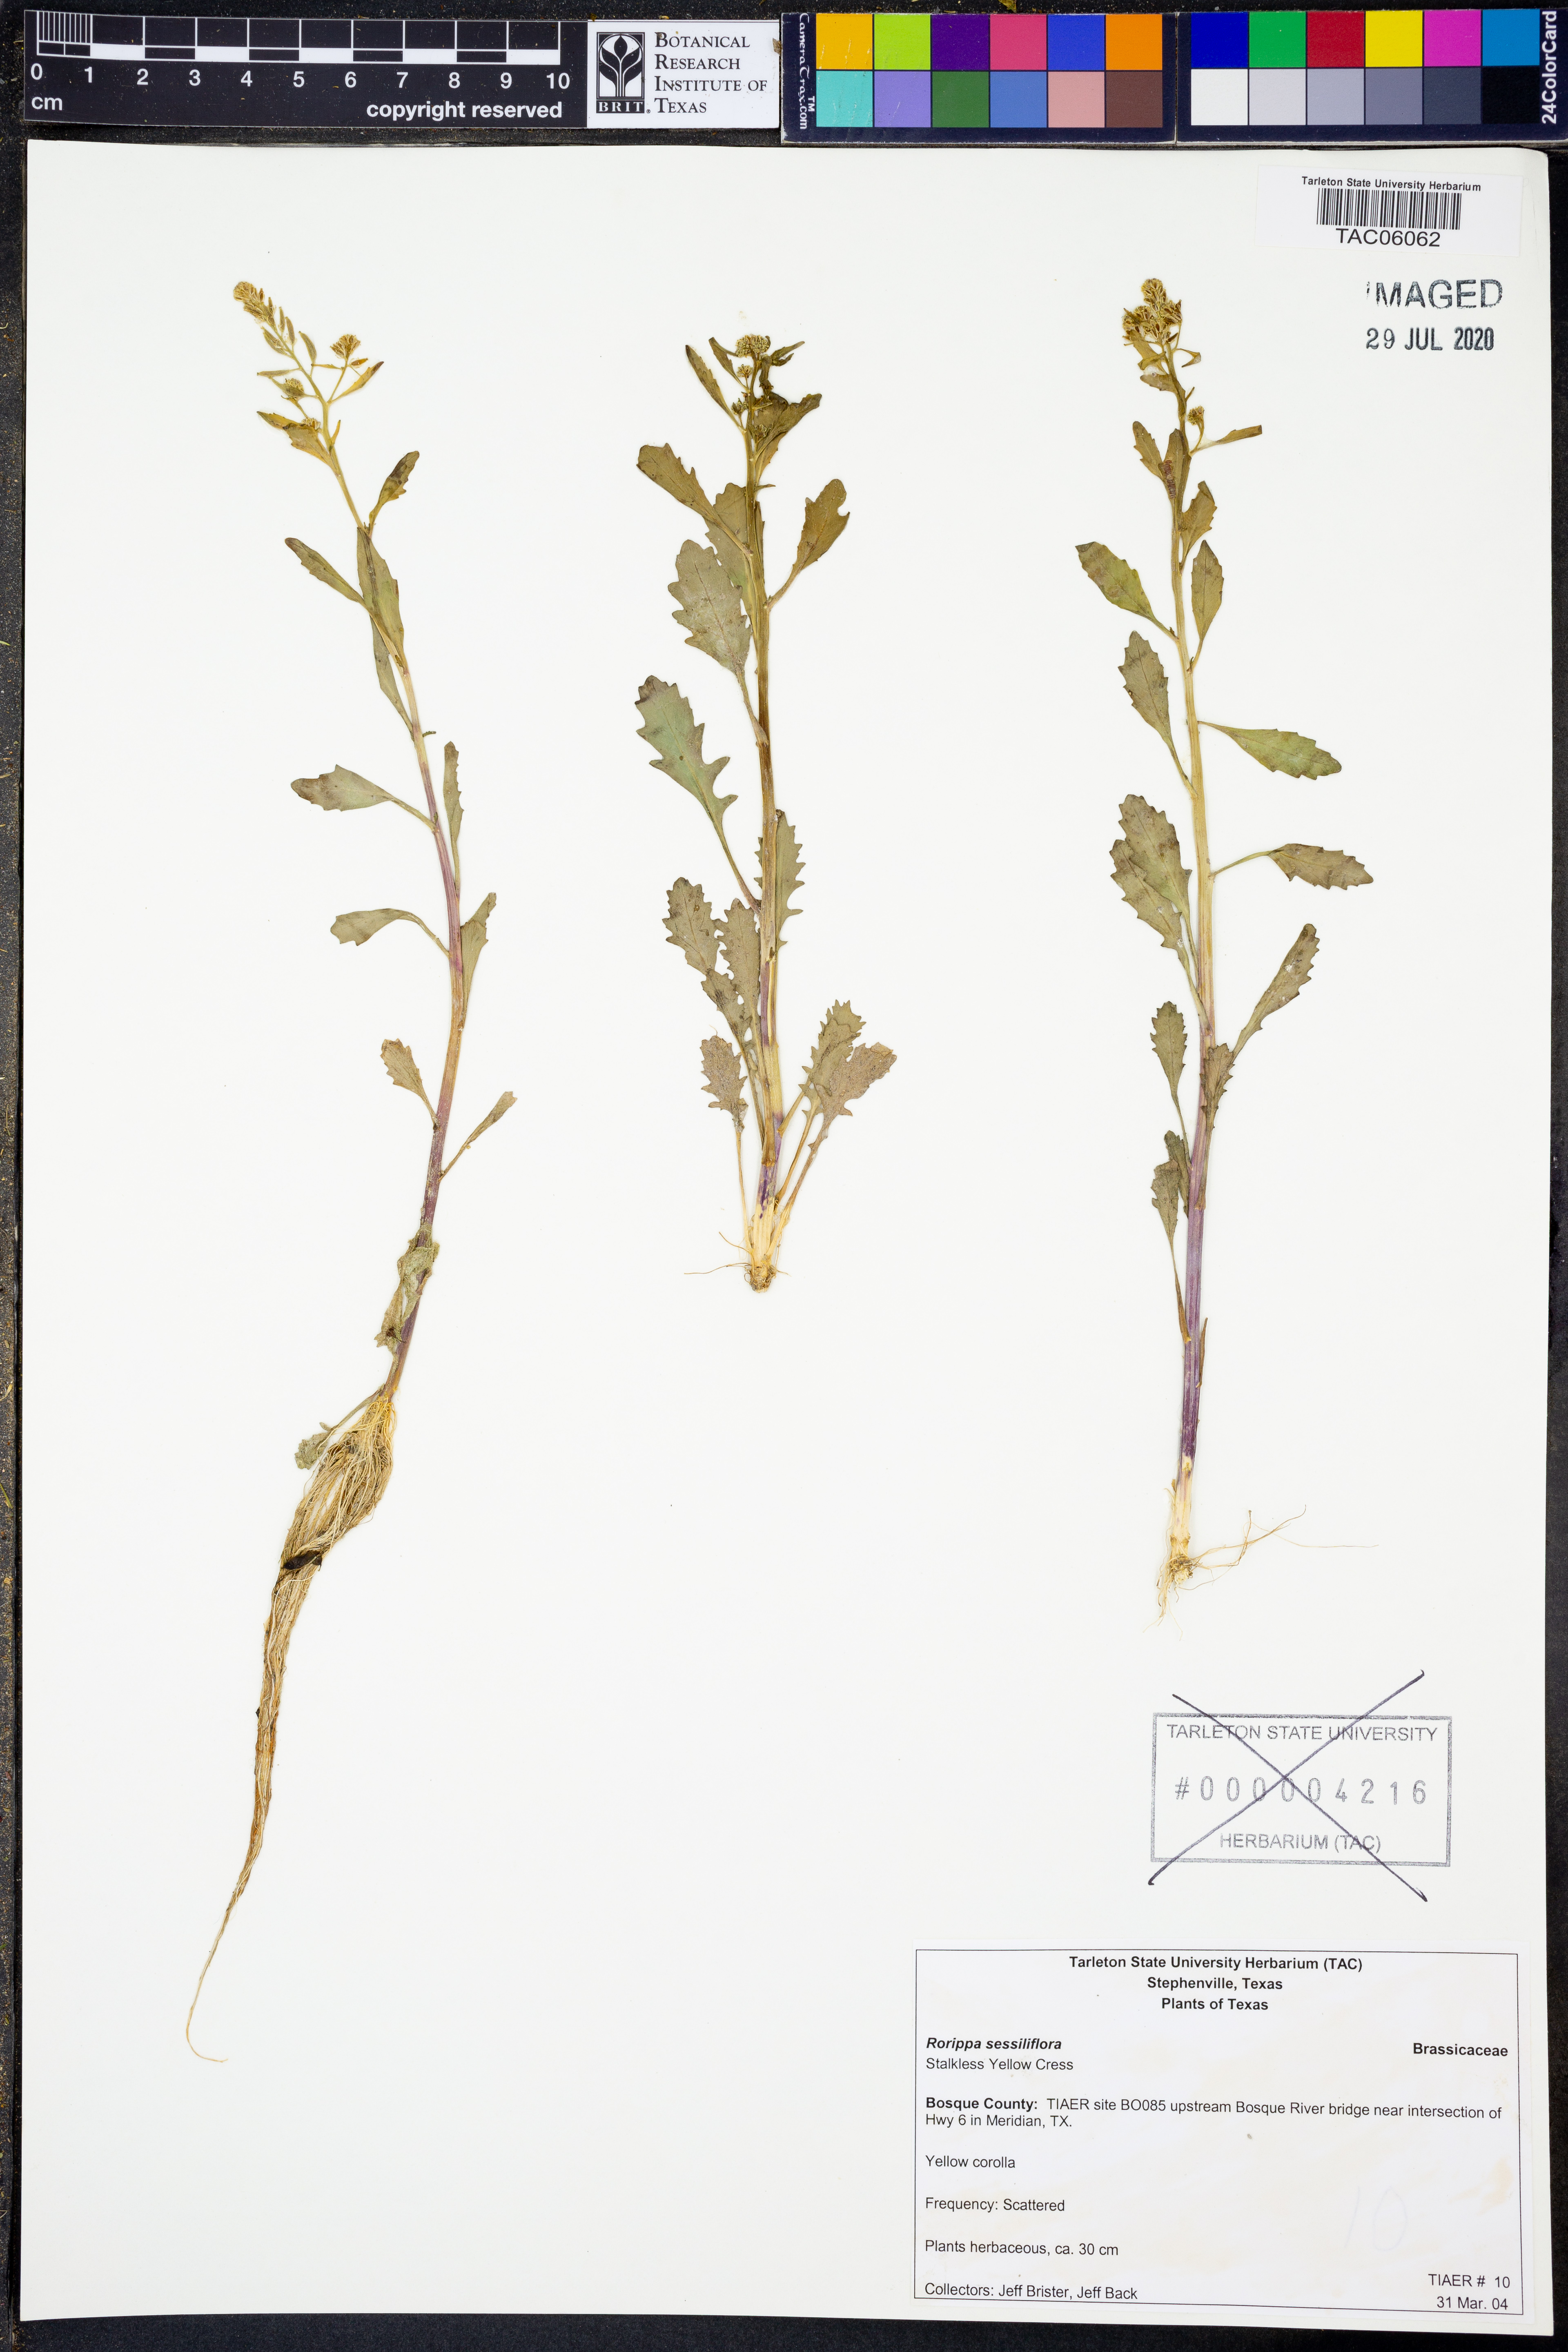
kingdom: Plantae
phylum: Tracheophyta
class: Magnoliopsida
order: Brassicales
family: Brassicaceae
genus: Rorippa
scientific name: Rorippa sessiliflora
